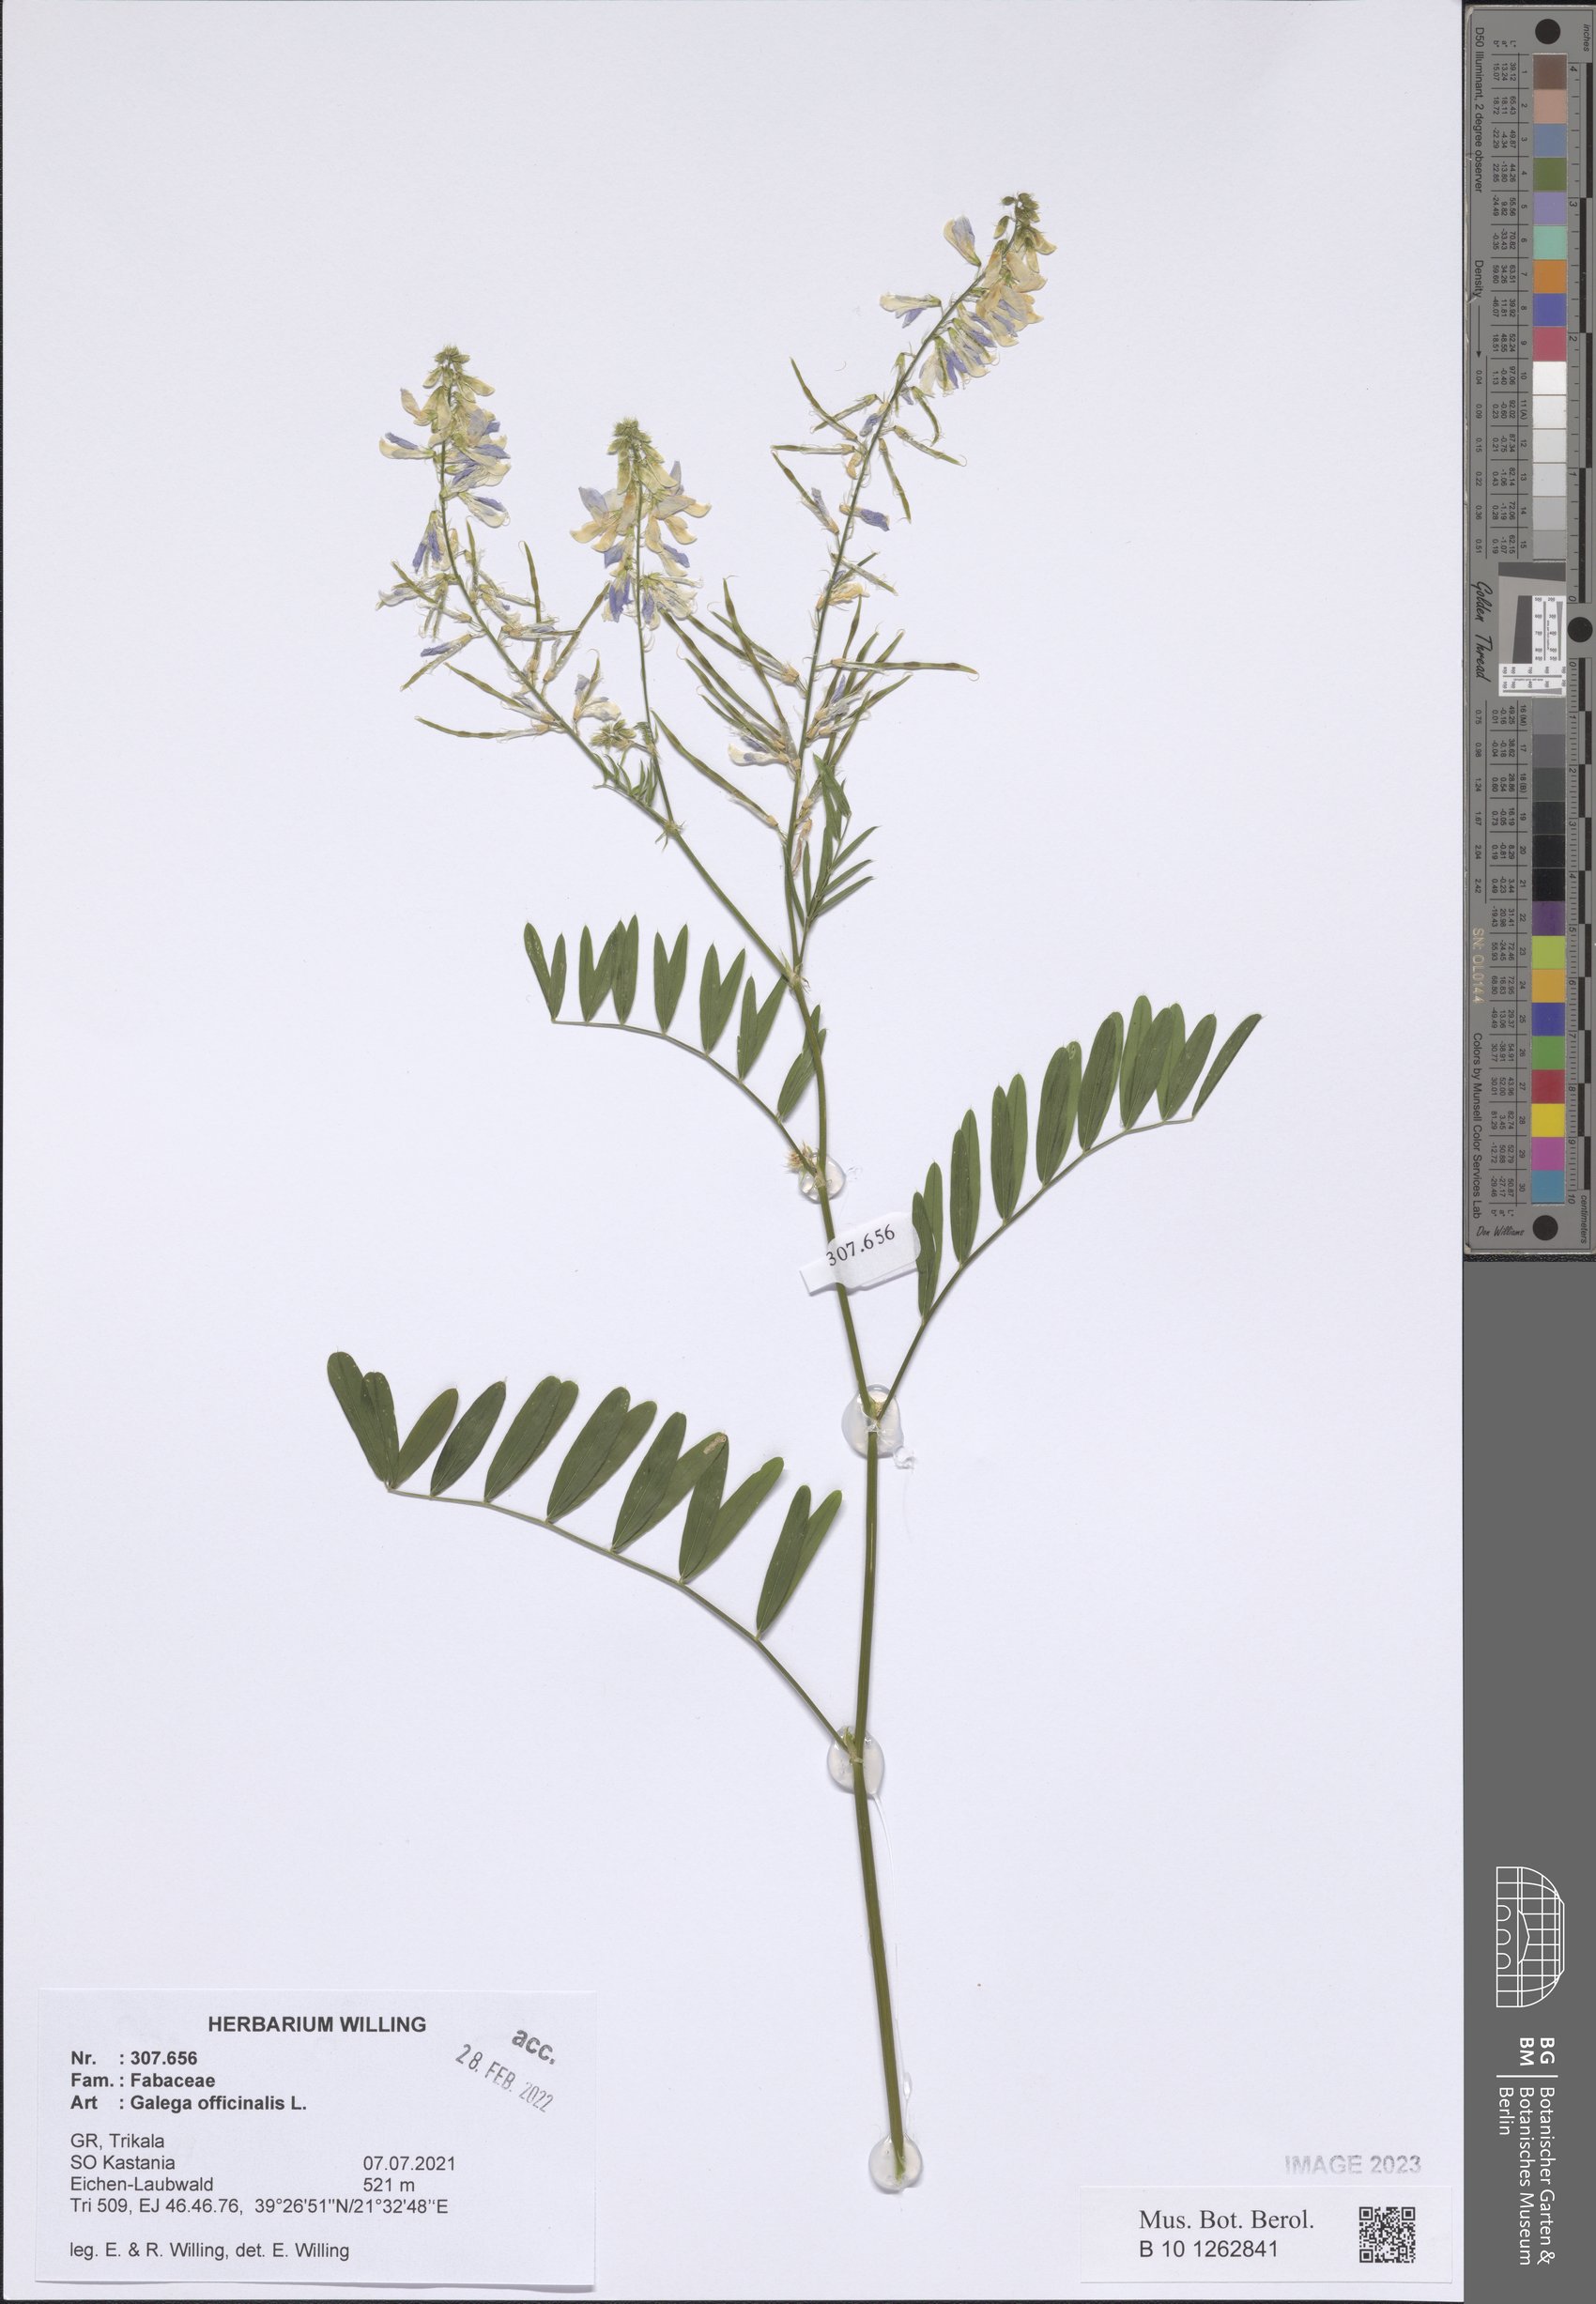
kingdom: Plantae
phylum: Tracheophyta
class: Magnoliopsida
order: Fabales
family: Fabaceae
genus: Galega
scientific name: Galega officinalis
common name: Goat's-rue
